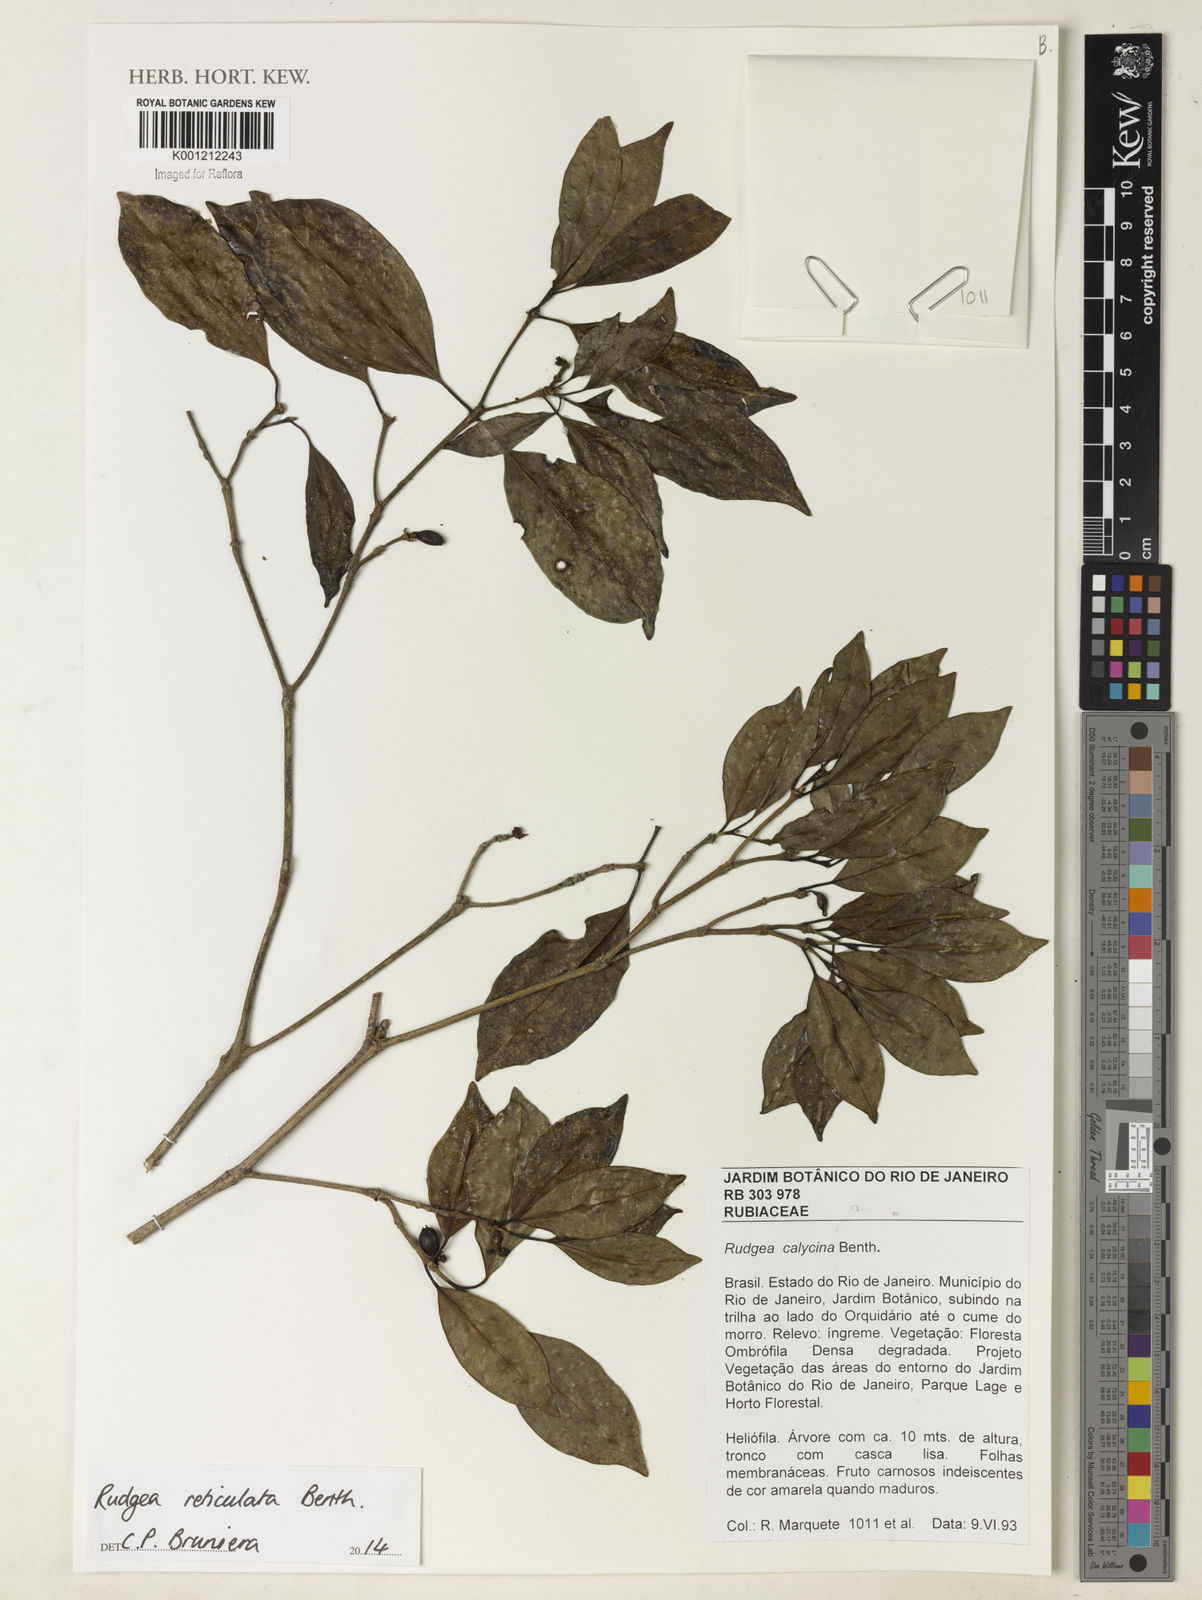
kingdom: Plantae
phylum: Tracheophyta
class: Magnoliopsida
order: Gentianales
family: Rubiaceae
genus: Rudgea
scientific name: Rudgea reticulata
